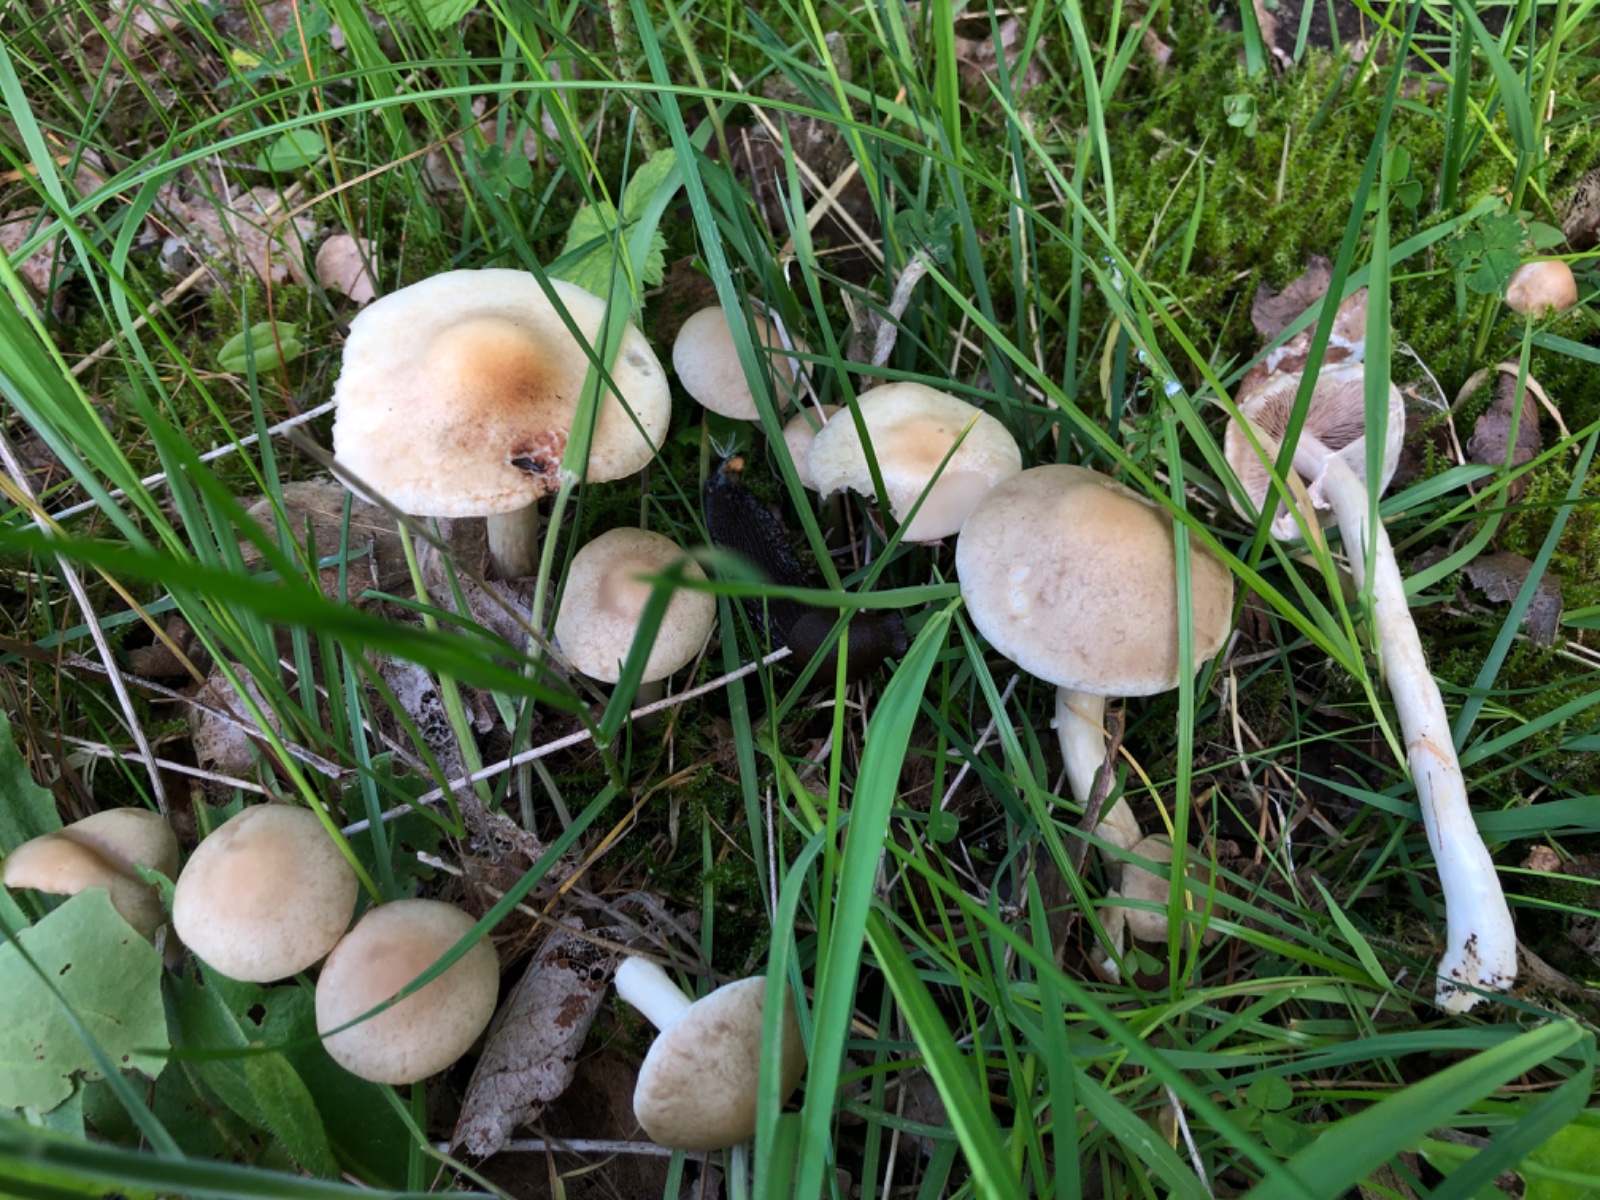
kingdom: Fungi
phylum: Basidiomycota
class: Agaricomycetes
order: Agaricales
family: Strophariaceae
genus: Agrocybe
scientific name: Agrocybe praecox
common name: tidlig agerhat
